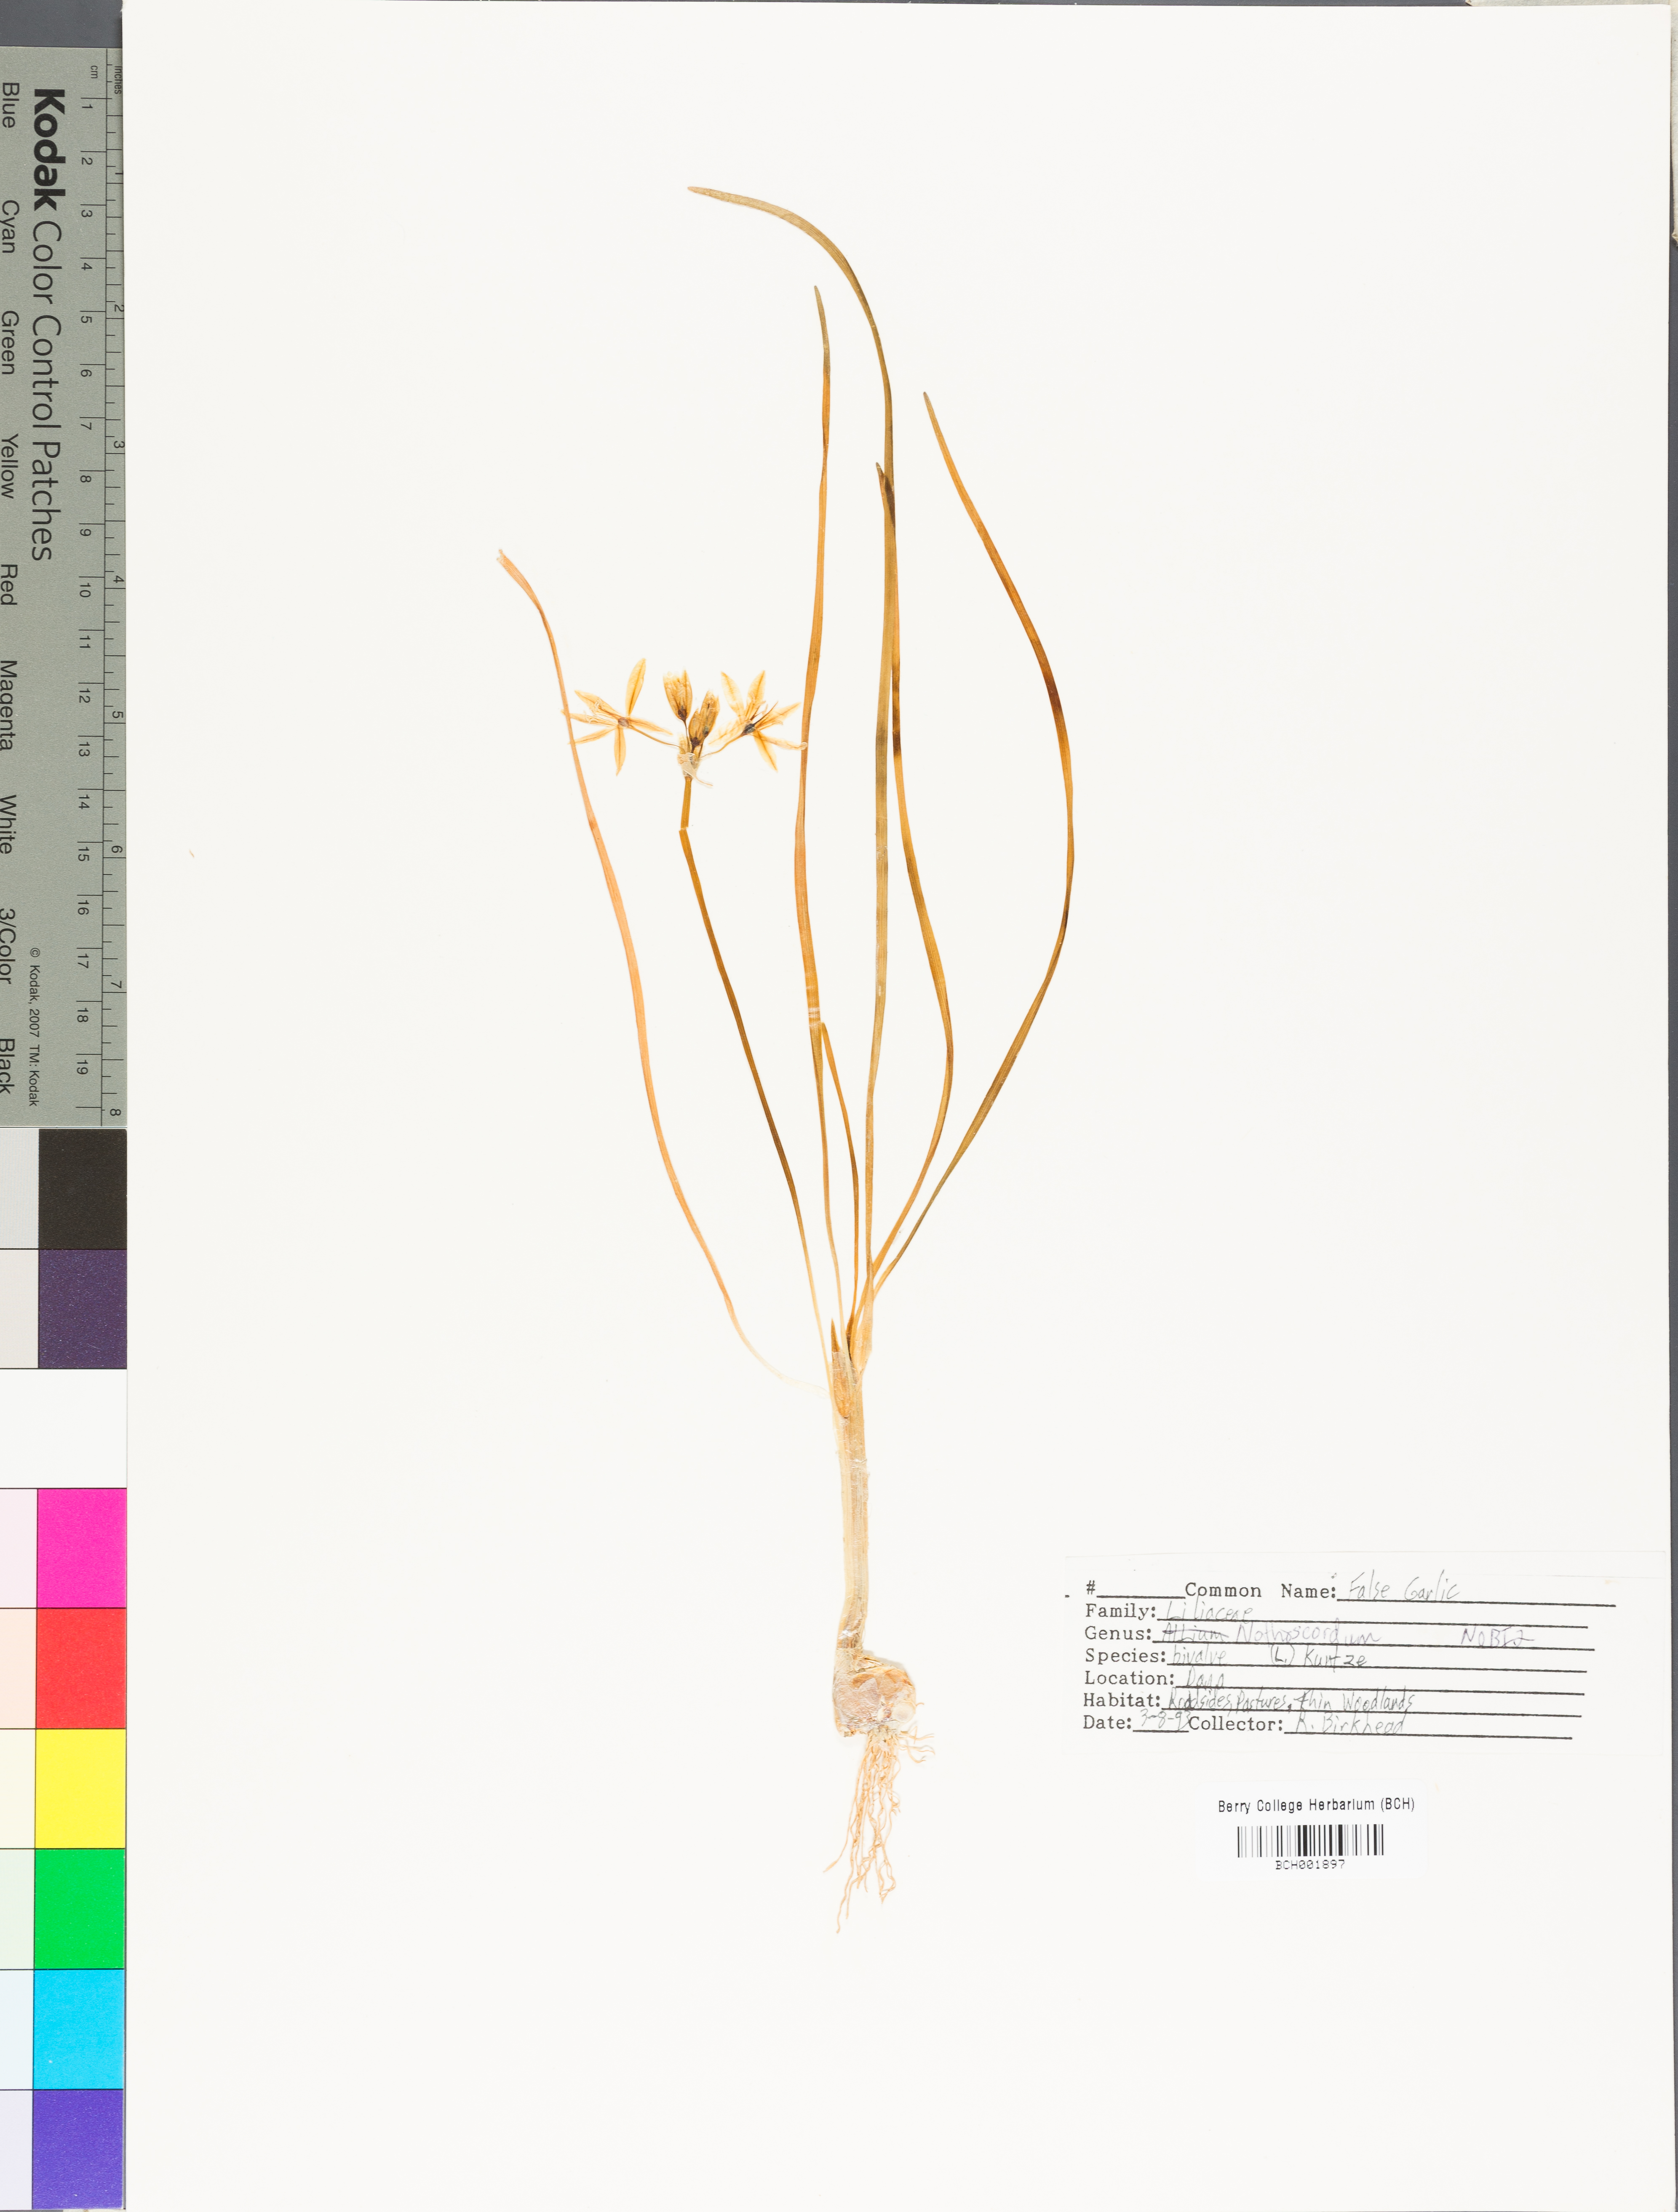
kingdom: Plantae
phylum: Tracheophyta
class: Liliopsida
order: Asparagales
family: Amaryllidaceae
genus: Nothoscordum
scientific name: Nothoscordum bivalve
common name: Crow-poison
